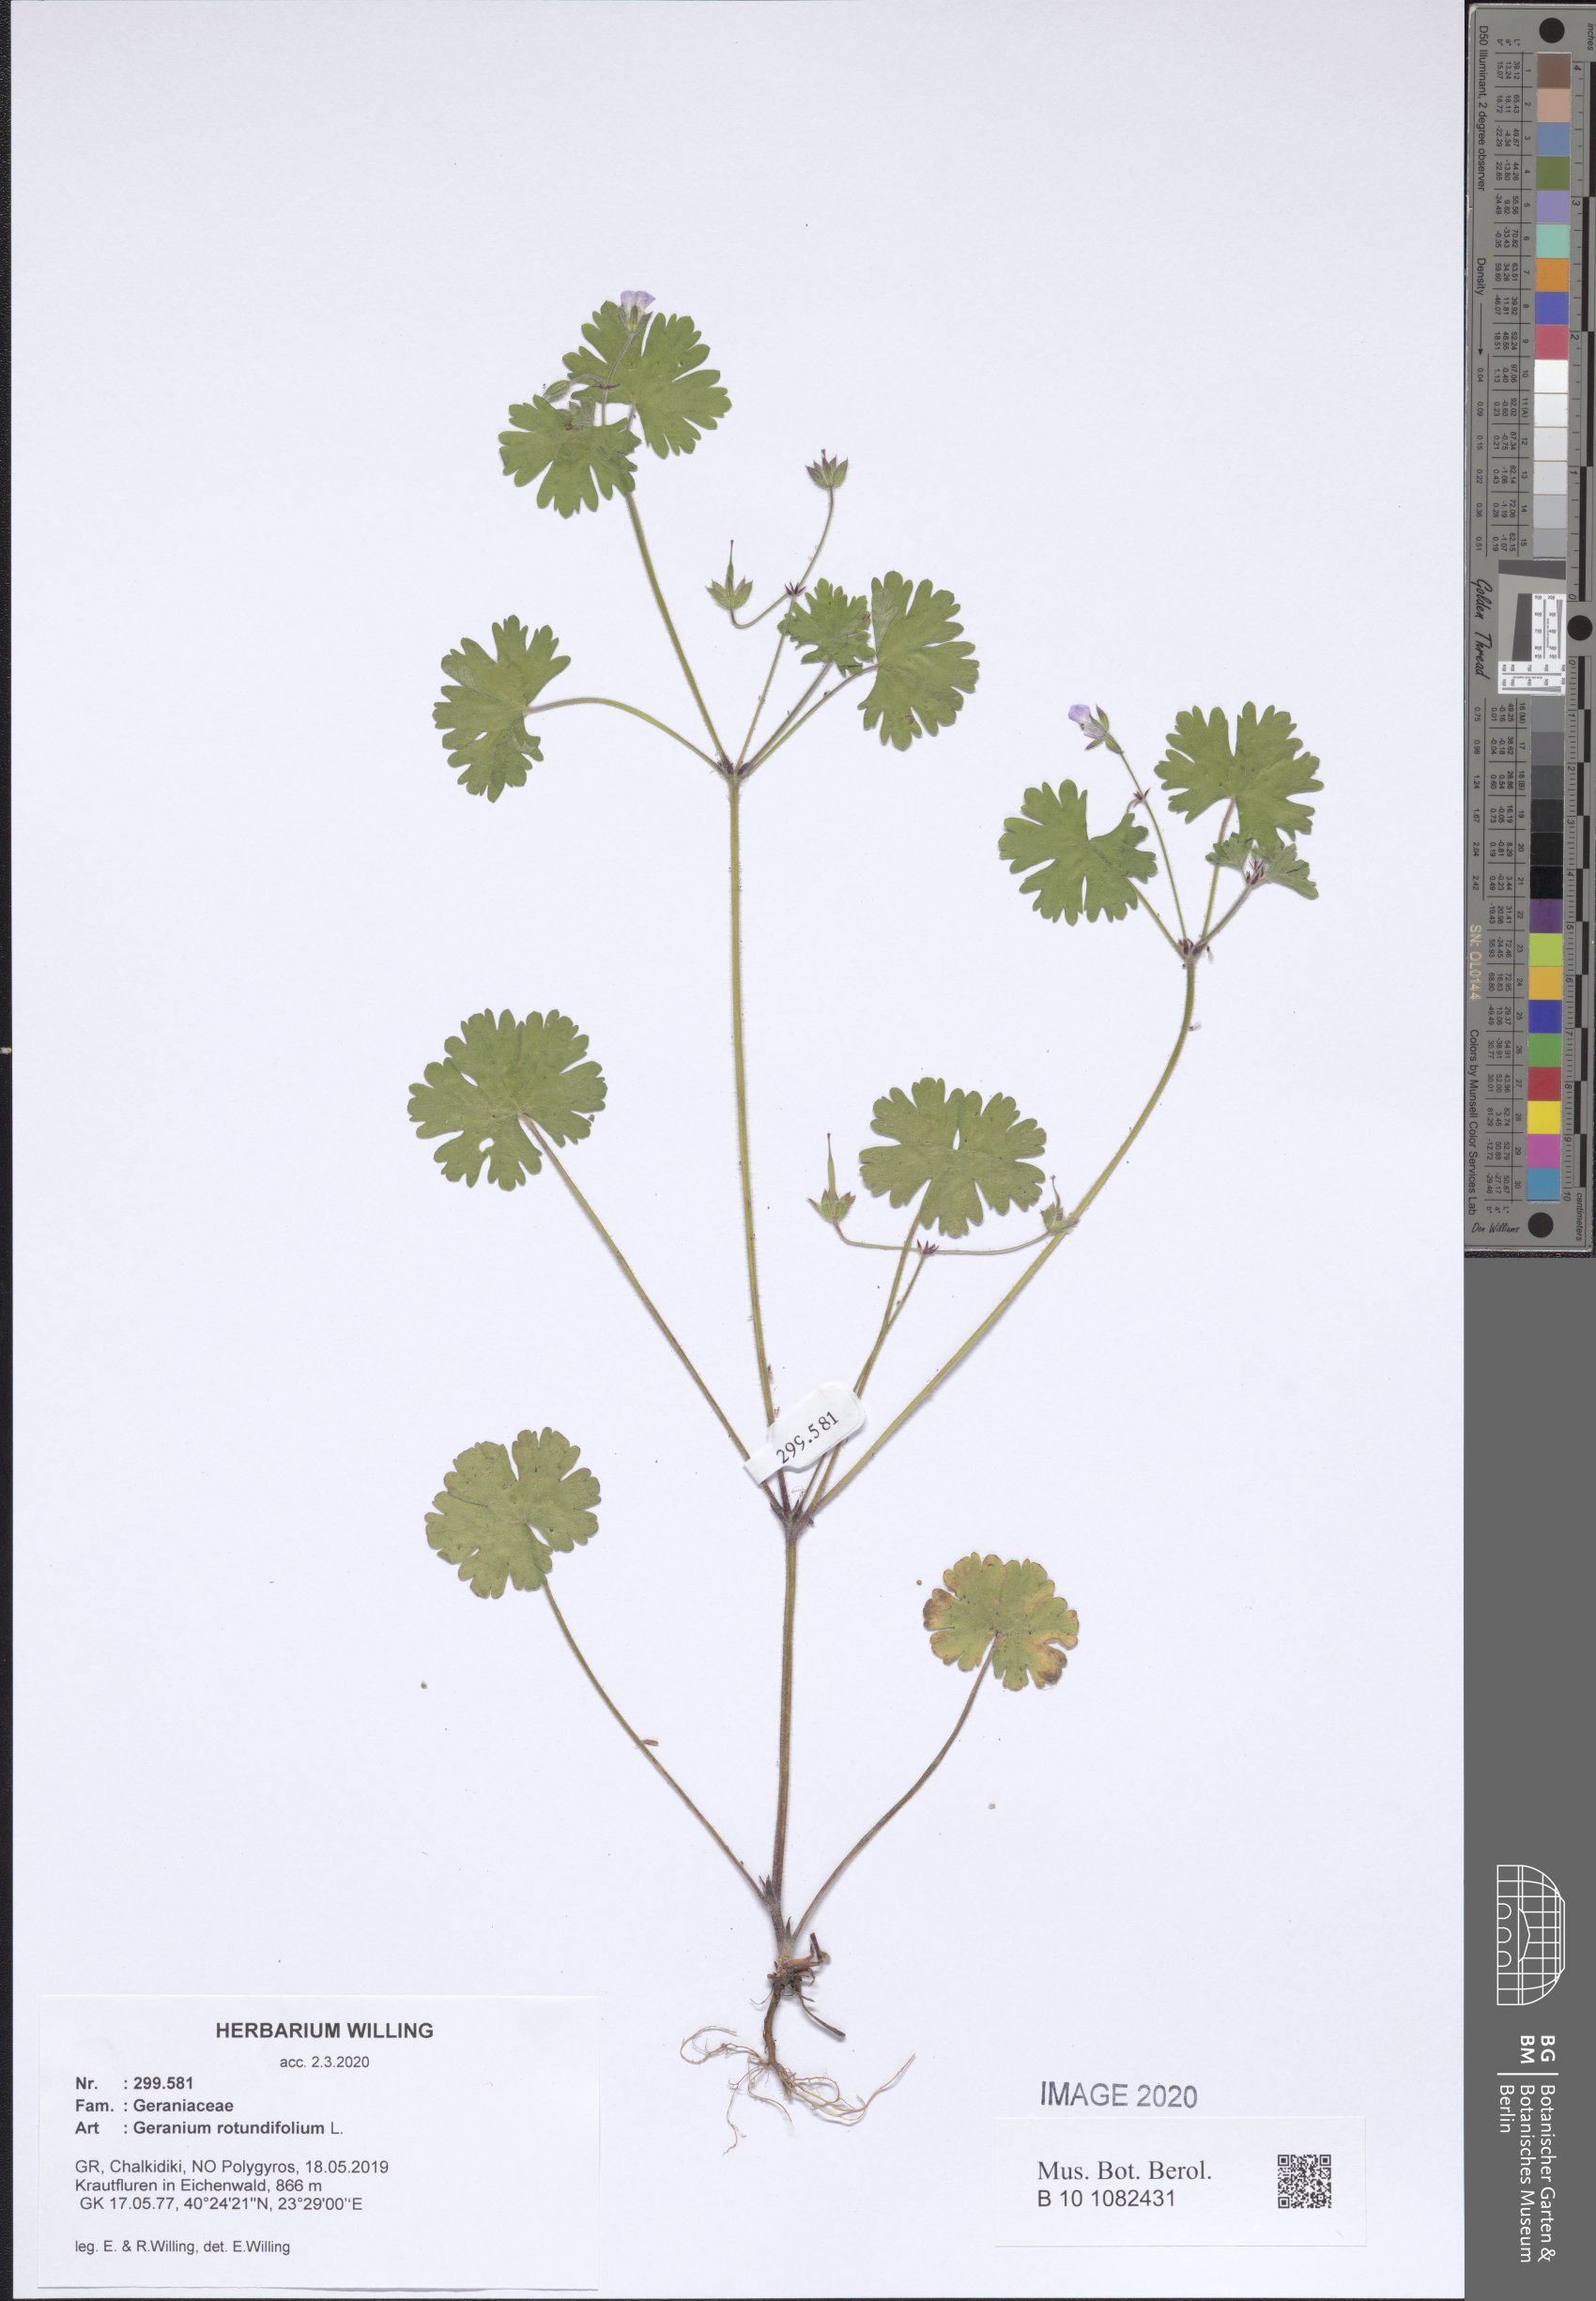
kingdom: Plantae
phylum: Tracheophyta
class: Magnoliopsida
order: Geraniales
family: Geraniaceae
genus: Geranium
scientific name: Geranium rotundifolium
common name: Round-leaved crane's-bill
